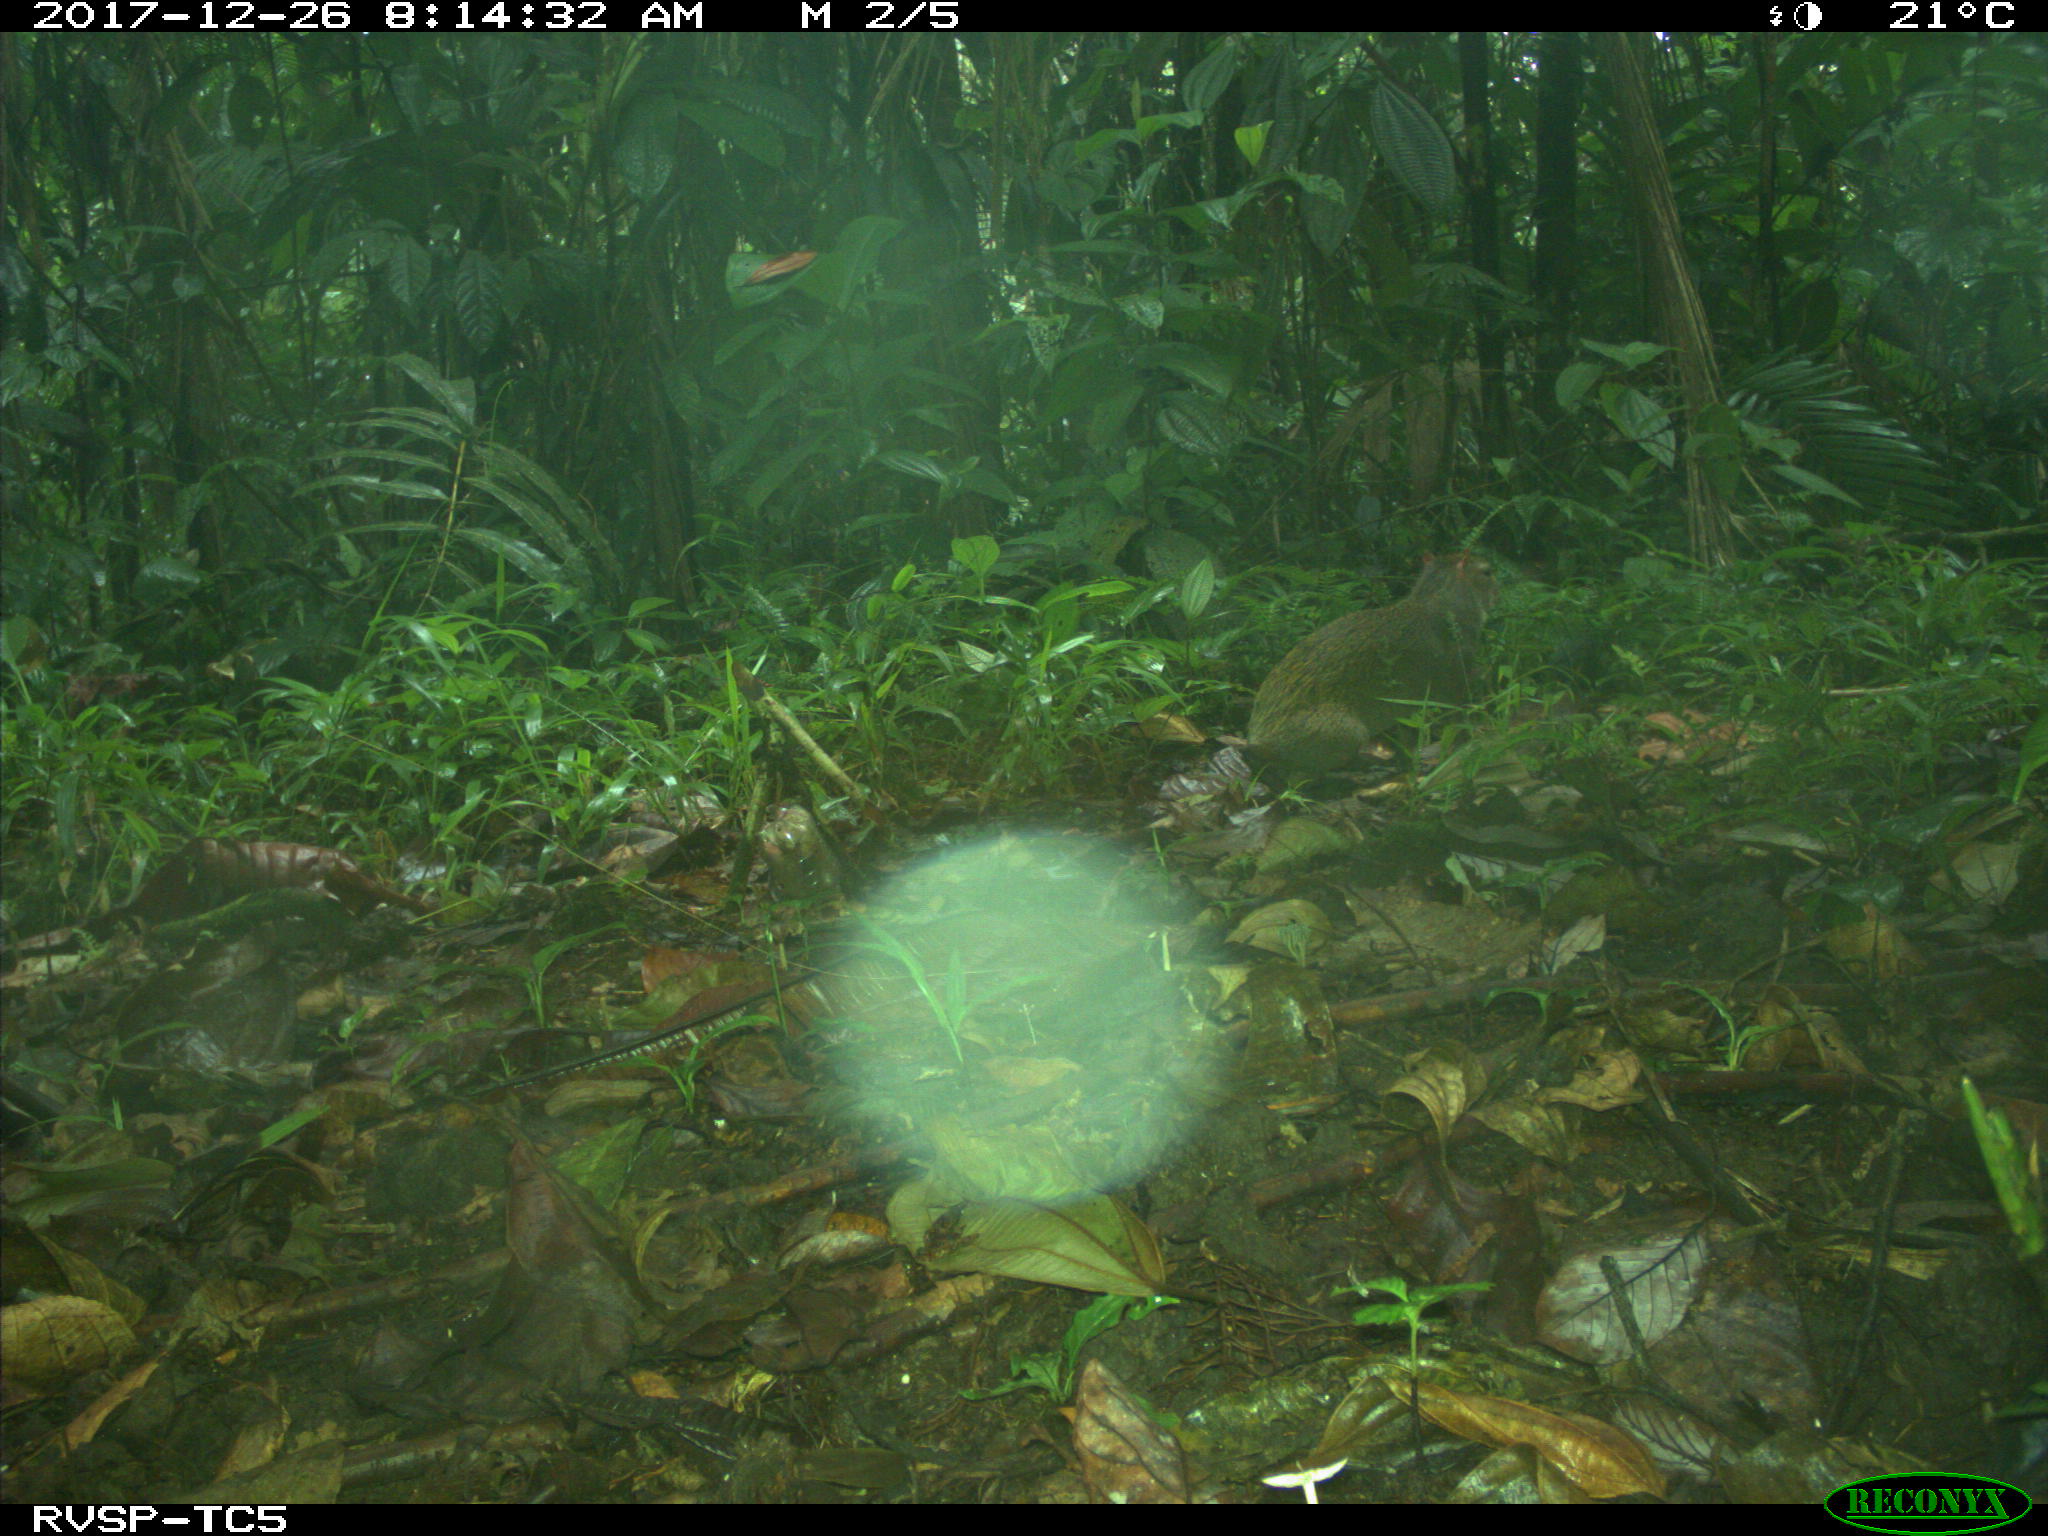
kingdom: Animalia
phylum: Chordata
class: Mammalia
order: Rodentia
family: Dasyproctidae
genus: Dasyprocta
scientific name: Dasyprocta punctata
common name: Central american agouti
